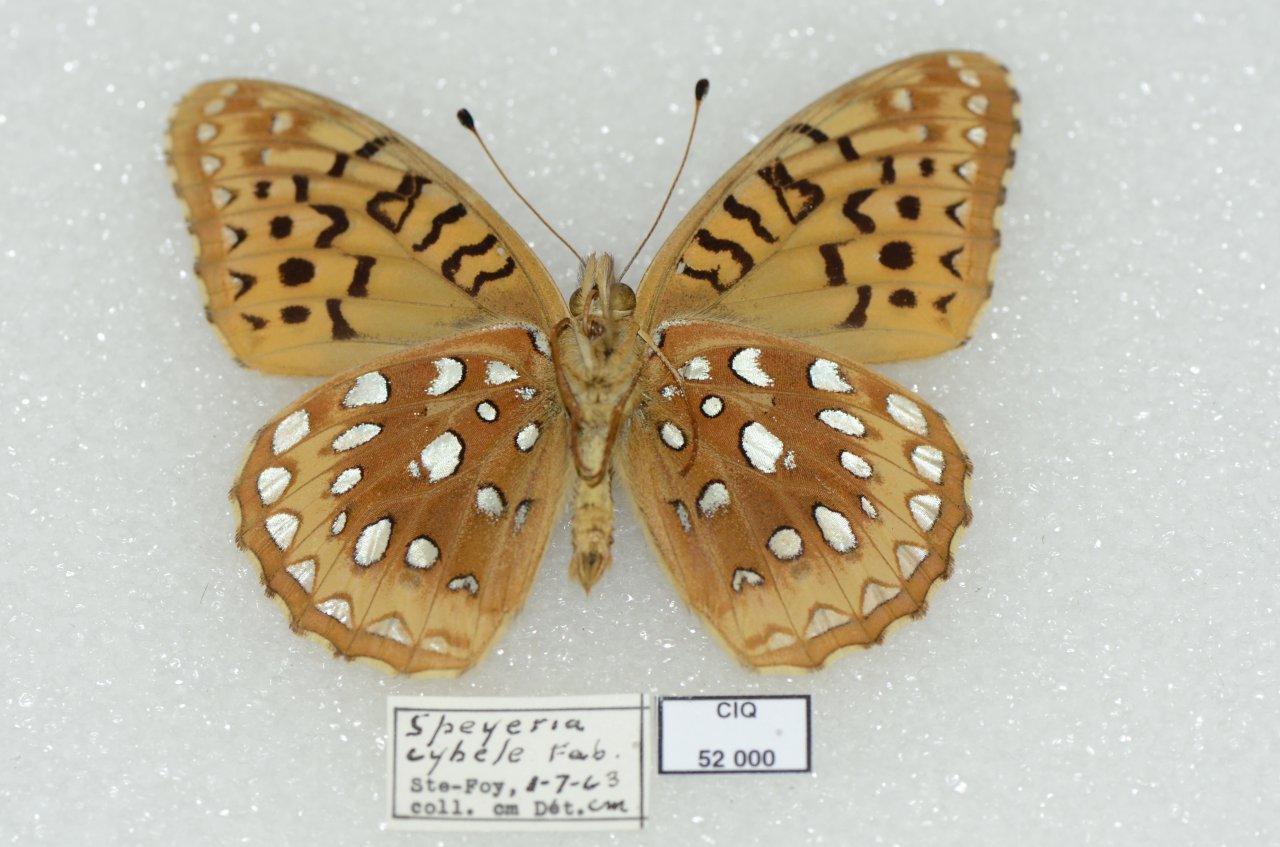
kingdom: Animalia
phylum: Arthropoda
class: Insecta
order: Lepidoptera
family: Nymphalidae
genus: Speyeria
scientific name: Speyeria cybele
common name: Great Spangled Fritillary
